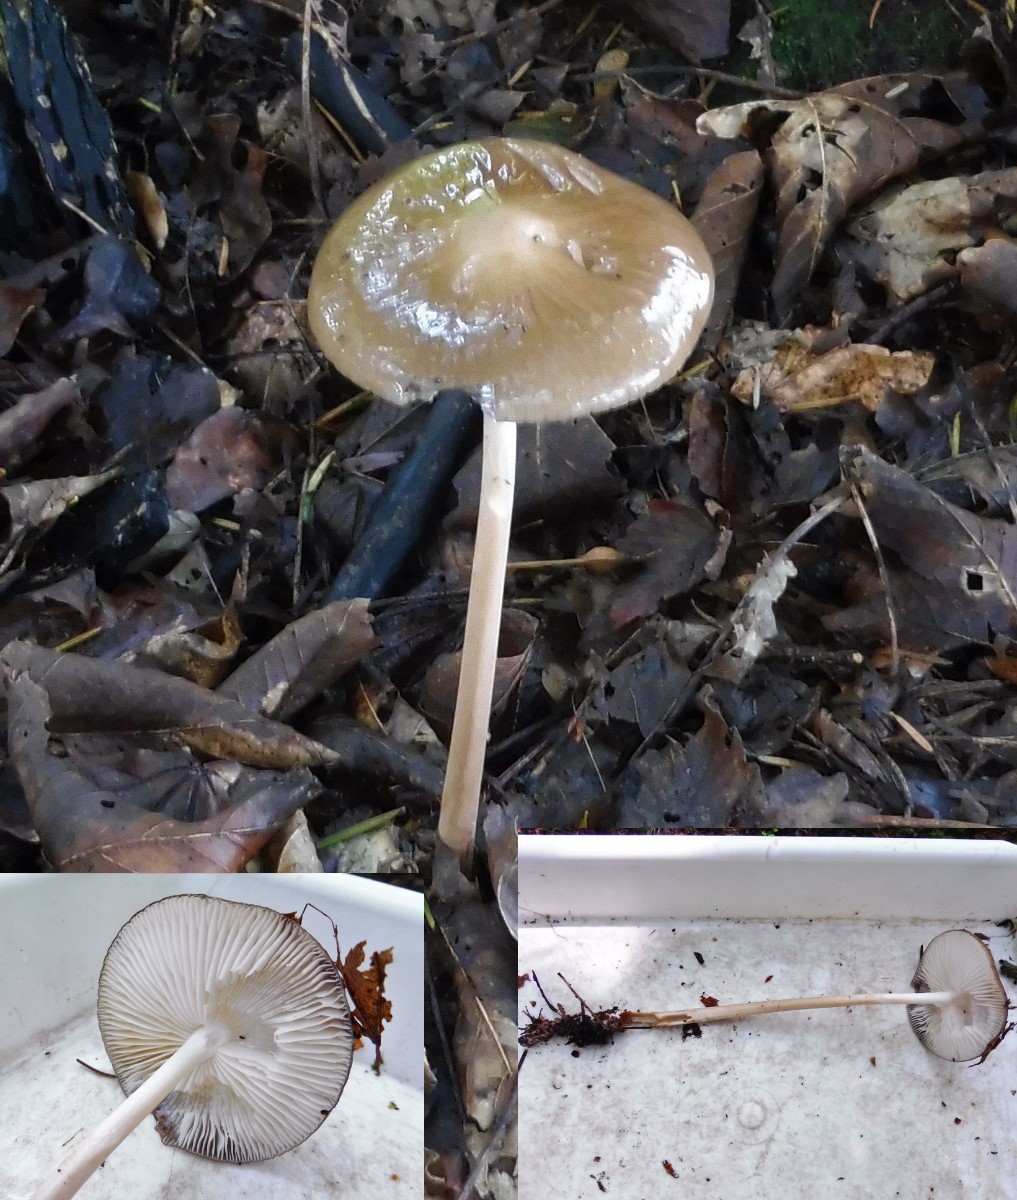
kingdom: Fungi
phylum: Basidiomycota
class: Agaricomycetes
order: Agaricales
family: Physalacriaceae
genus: Hymenopellis
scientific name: Hymenopellis radicata
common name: almindelig pælerodshat
